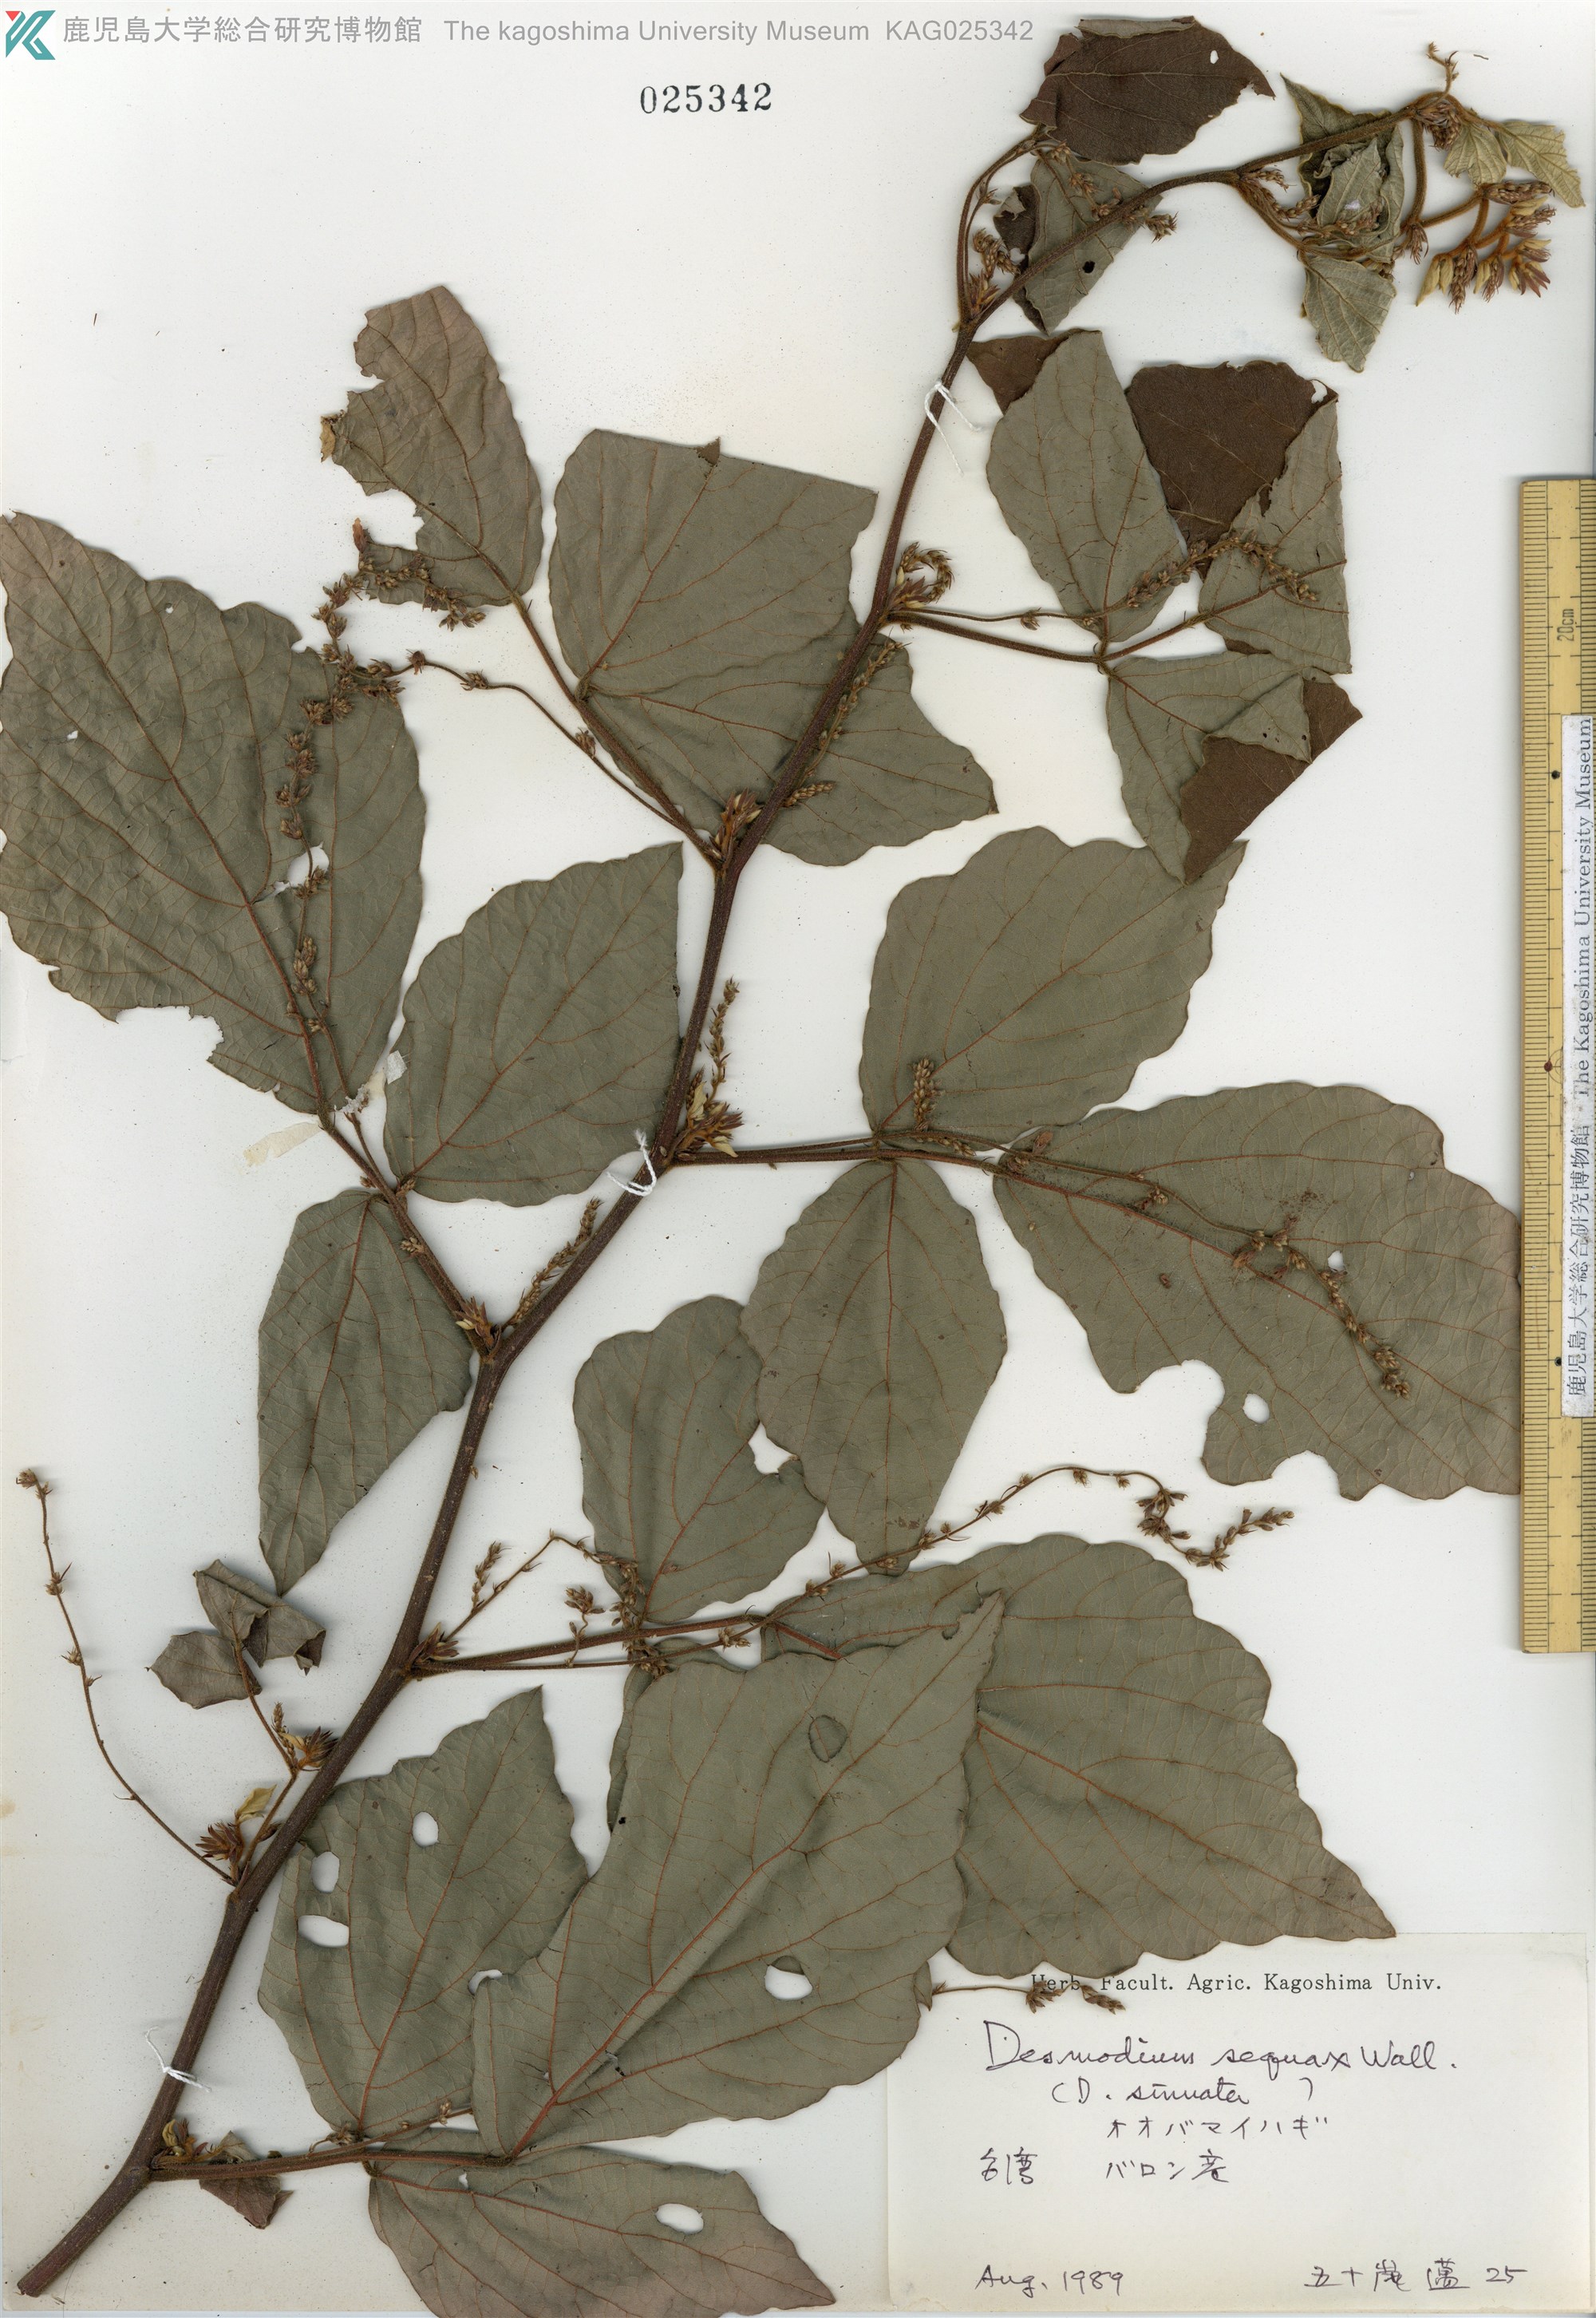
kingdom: Plantae
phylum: Tracheophyta
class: Magnoliopsida
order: Fabales
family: Fabaceae
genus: Puhuaea
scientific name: Puhuaea sequax
